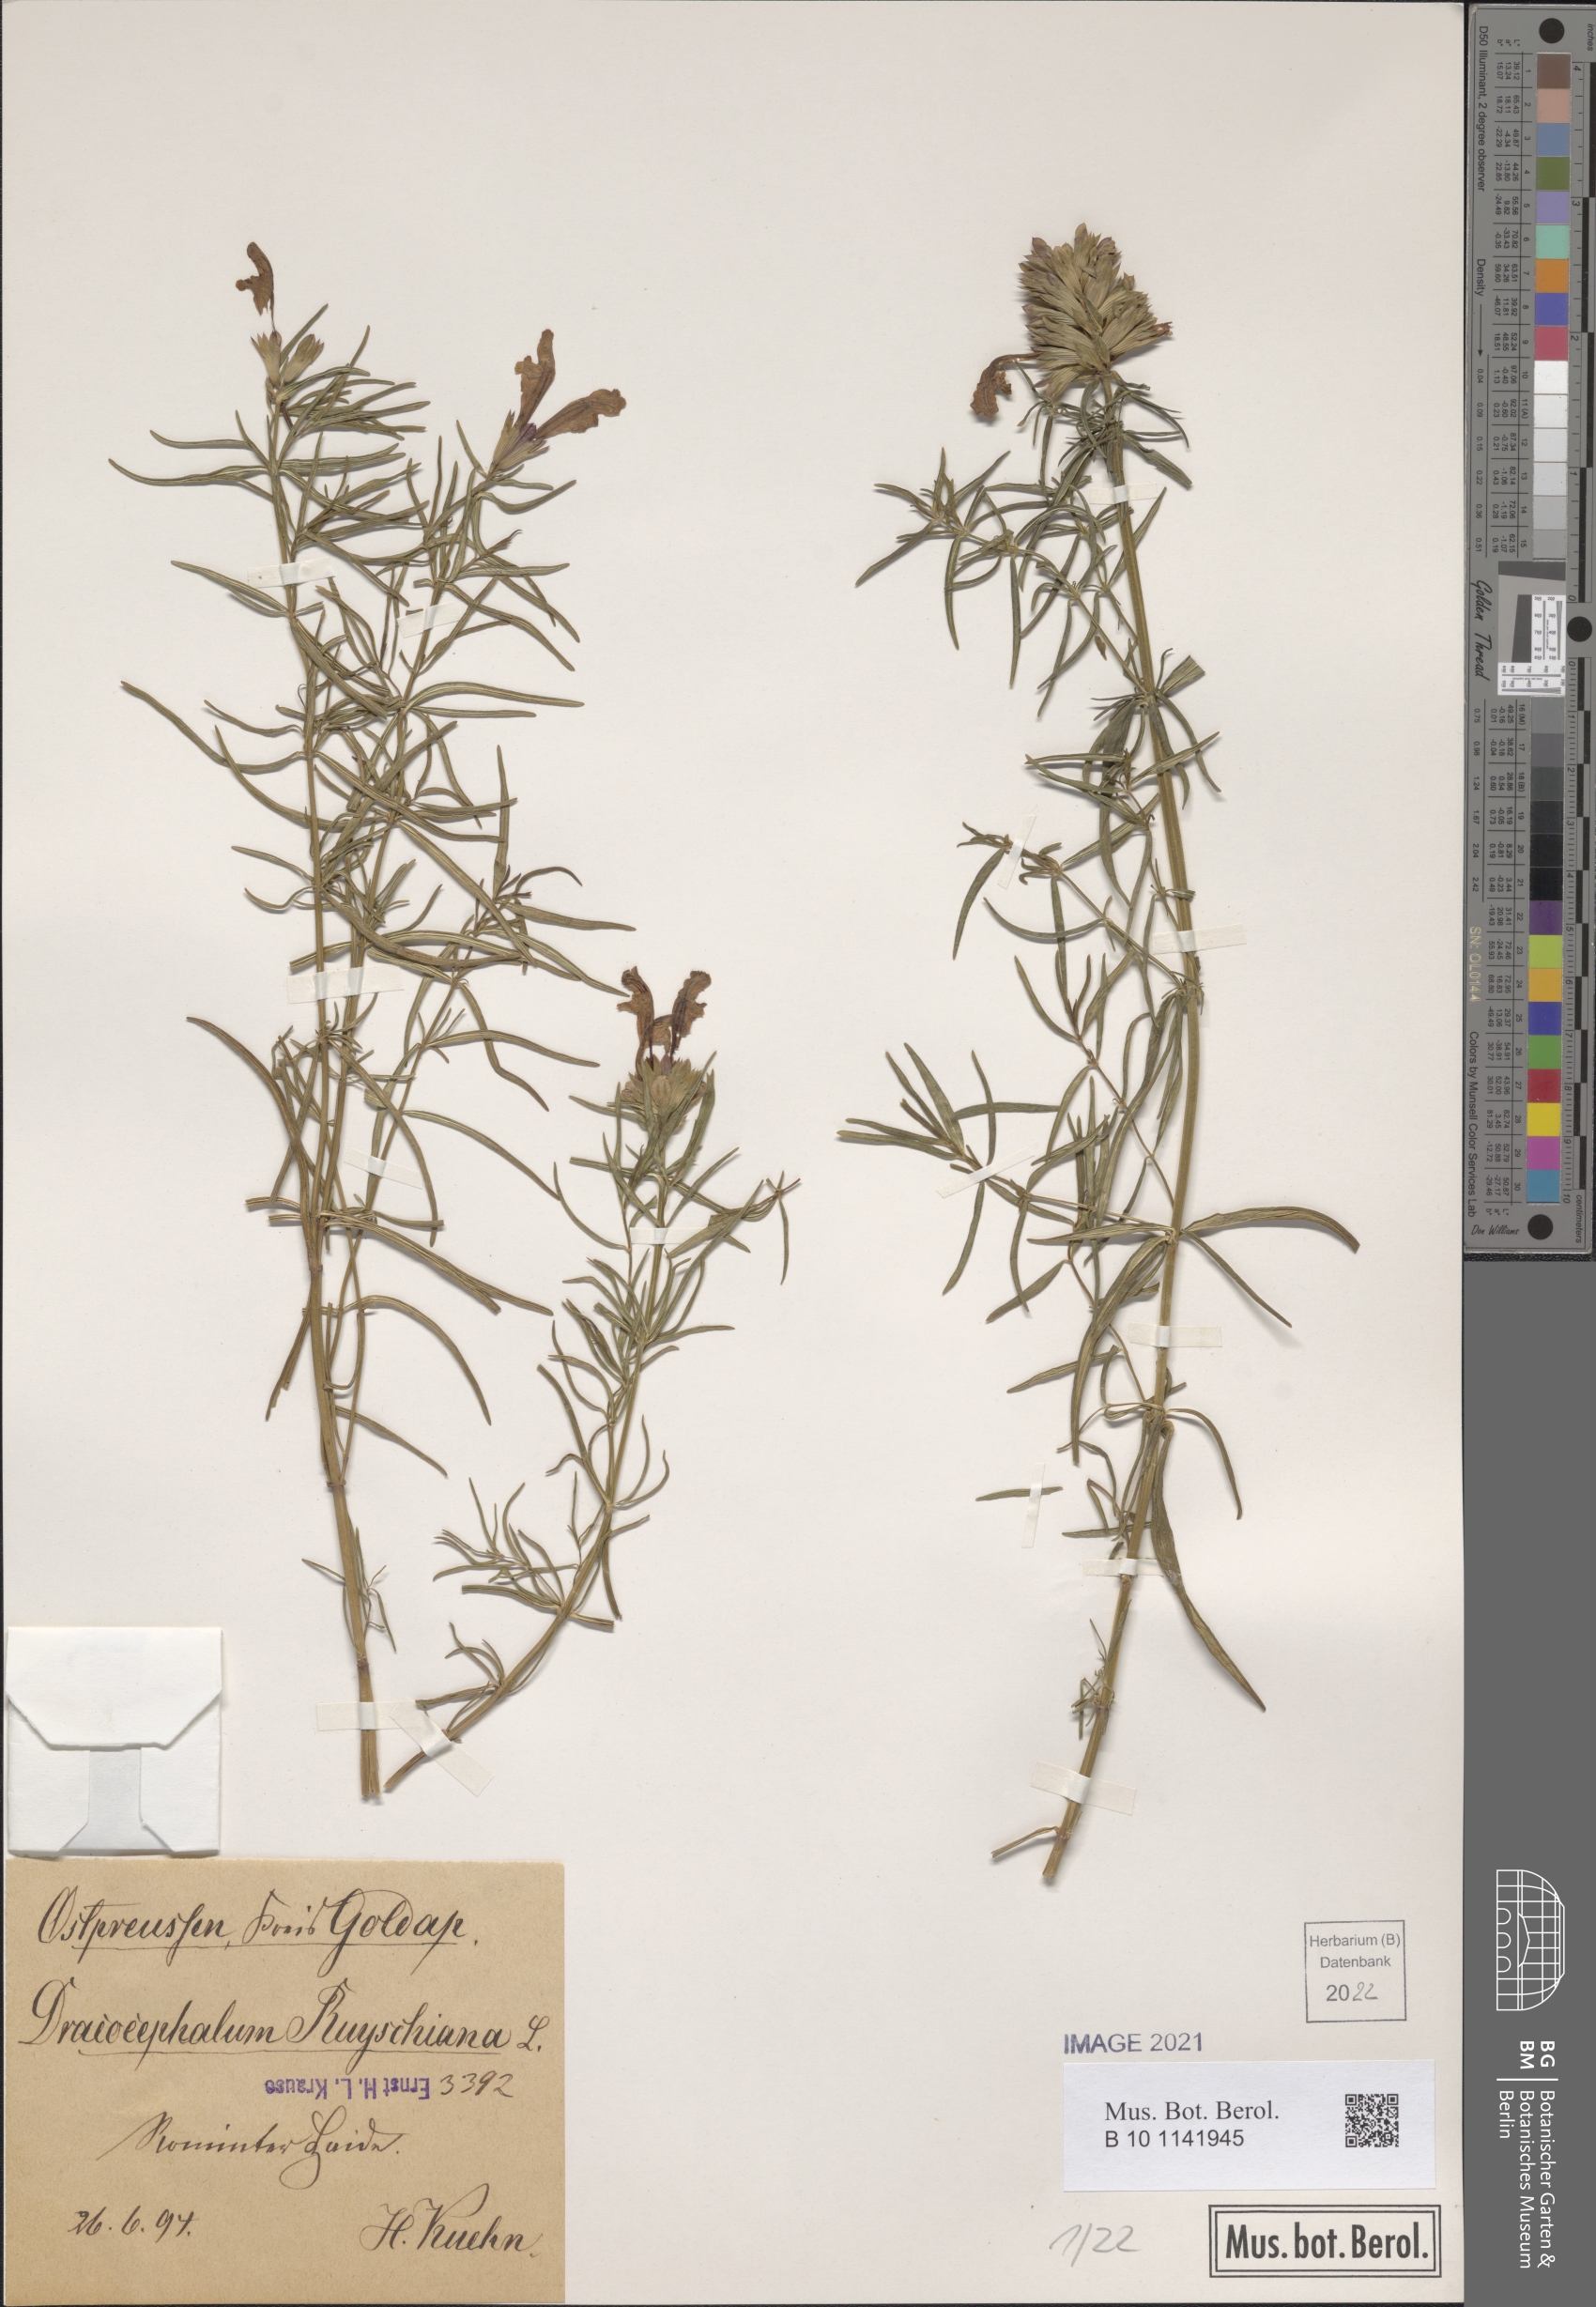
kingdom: Plantae
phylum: Tracheophyta
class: Magnoliopsida
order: Lamiales
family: Lamiaceae
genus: Dracocephalum
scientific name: Dracocephalum ruyschiana
